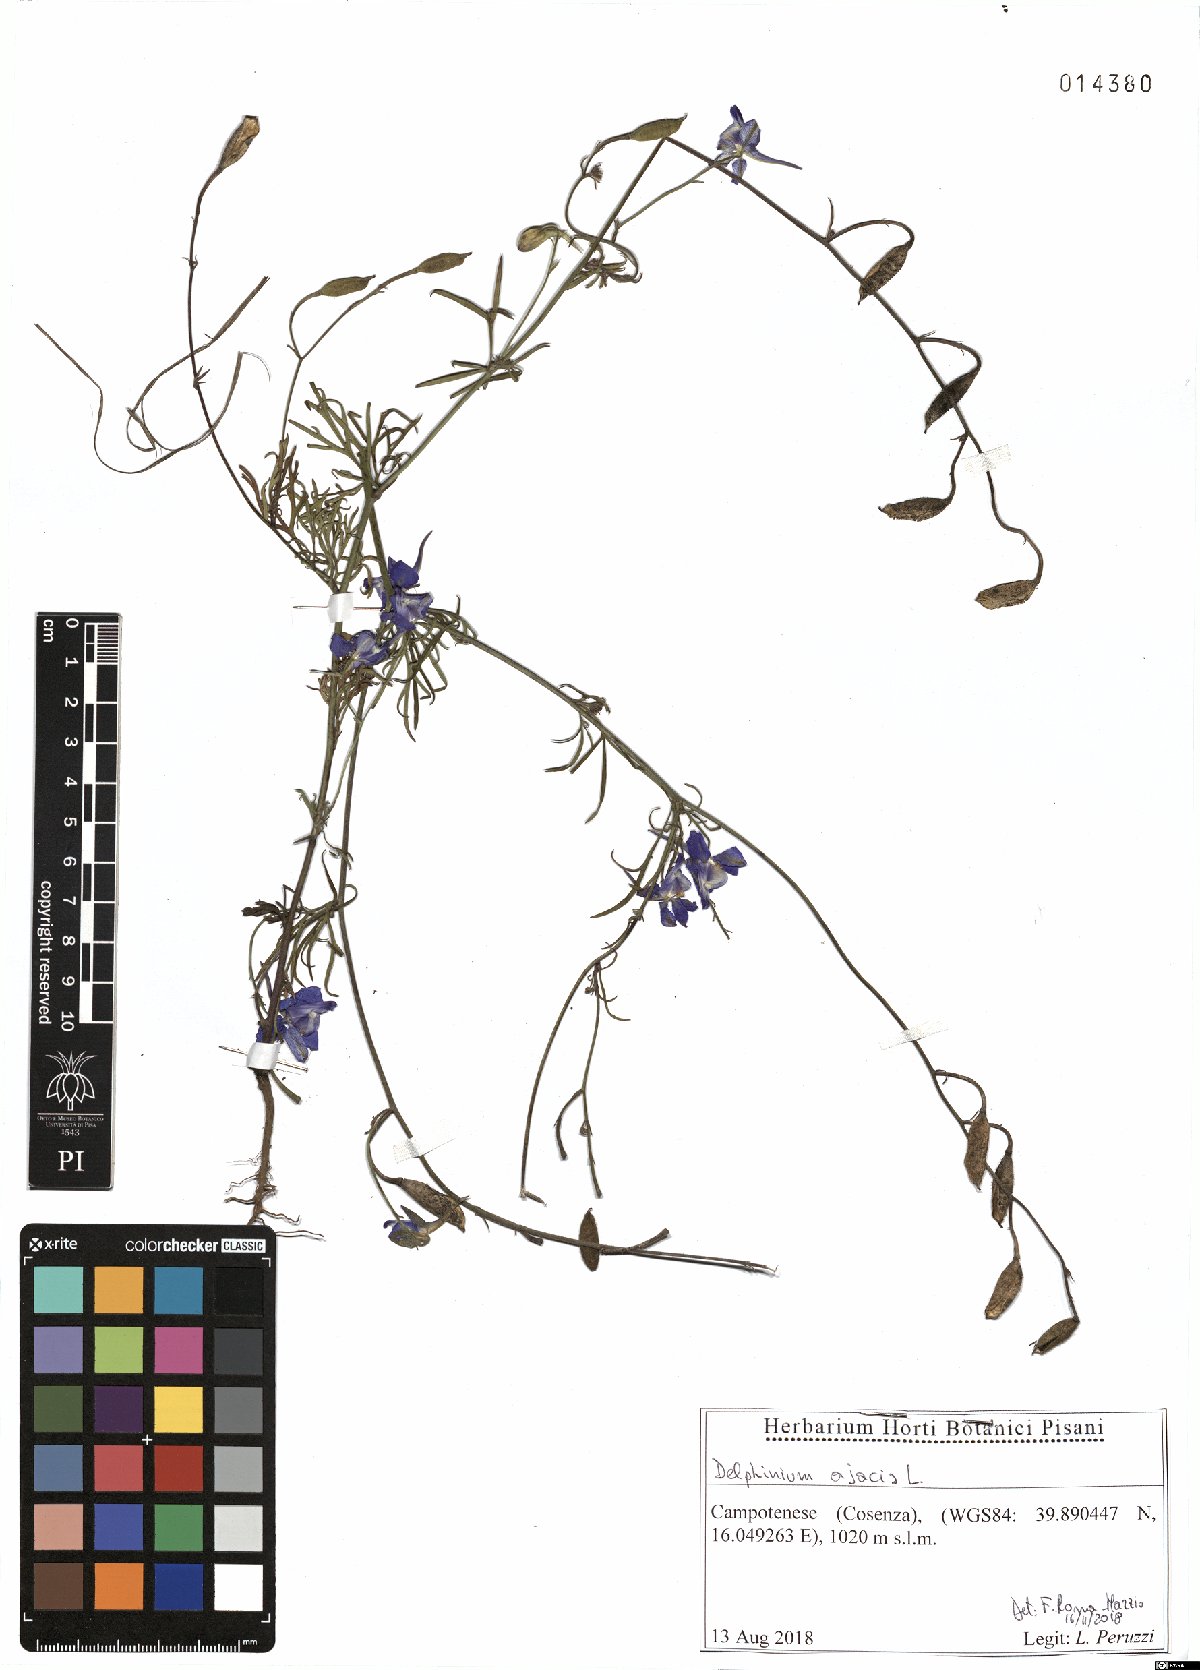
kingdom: Plantae
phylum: Tracheophyta
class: Magnoliopsida
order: Ranunculales
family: Ranunculaceae
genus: Delphinium
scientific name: Delphinium ajacis
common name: Doubtful knight's-spur
